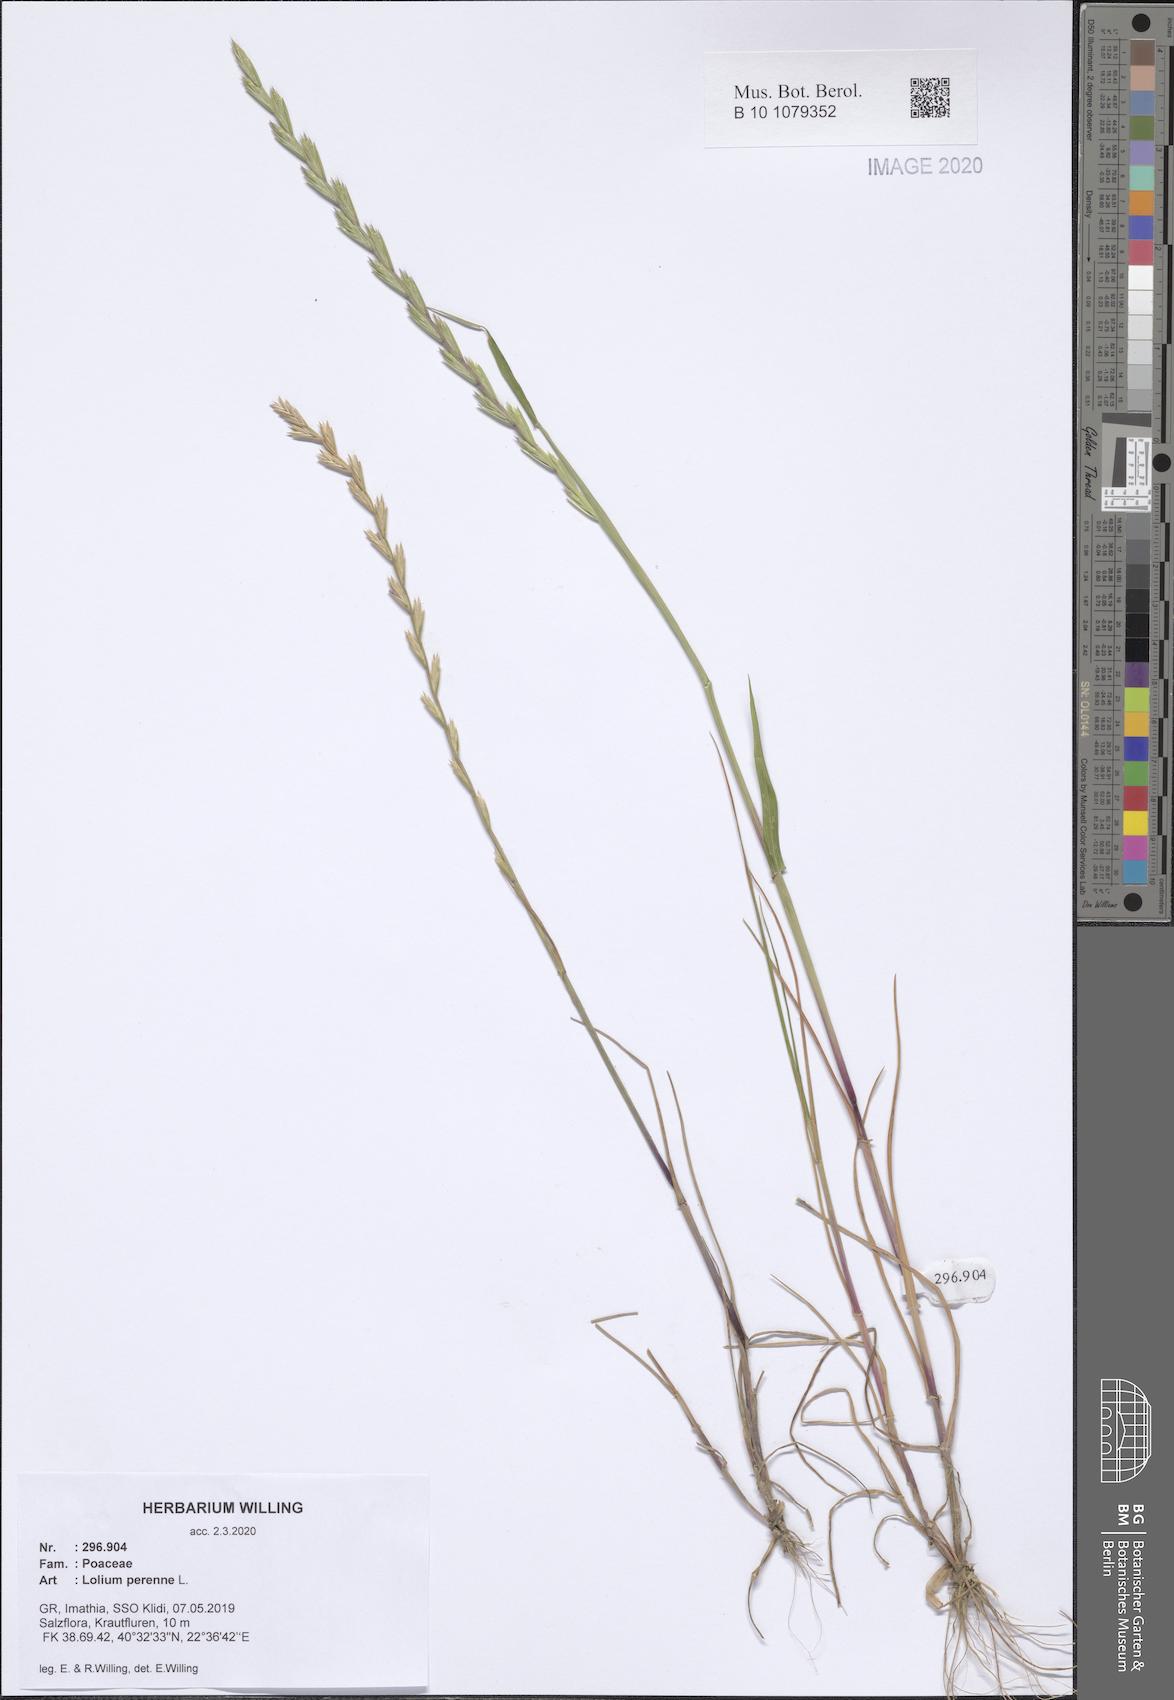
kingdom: Plantae
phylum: Tracheophyta
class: Liliopsida
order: Poales
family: Poaceae
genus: Lolium
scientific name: Lolium perenne
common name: Perennial ryegrass
